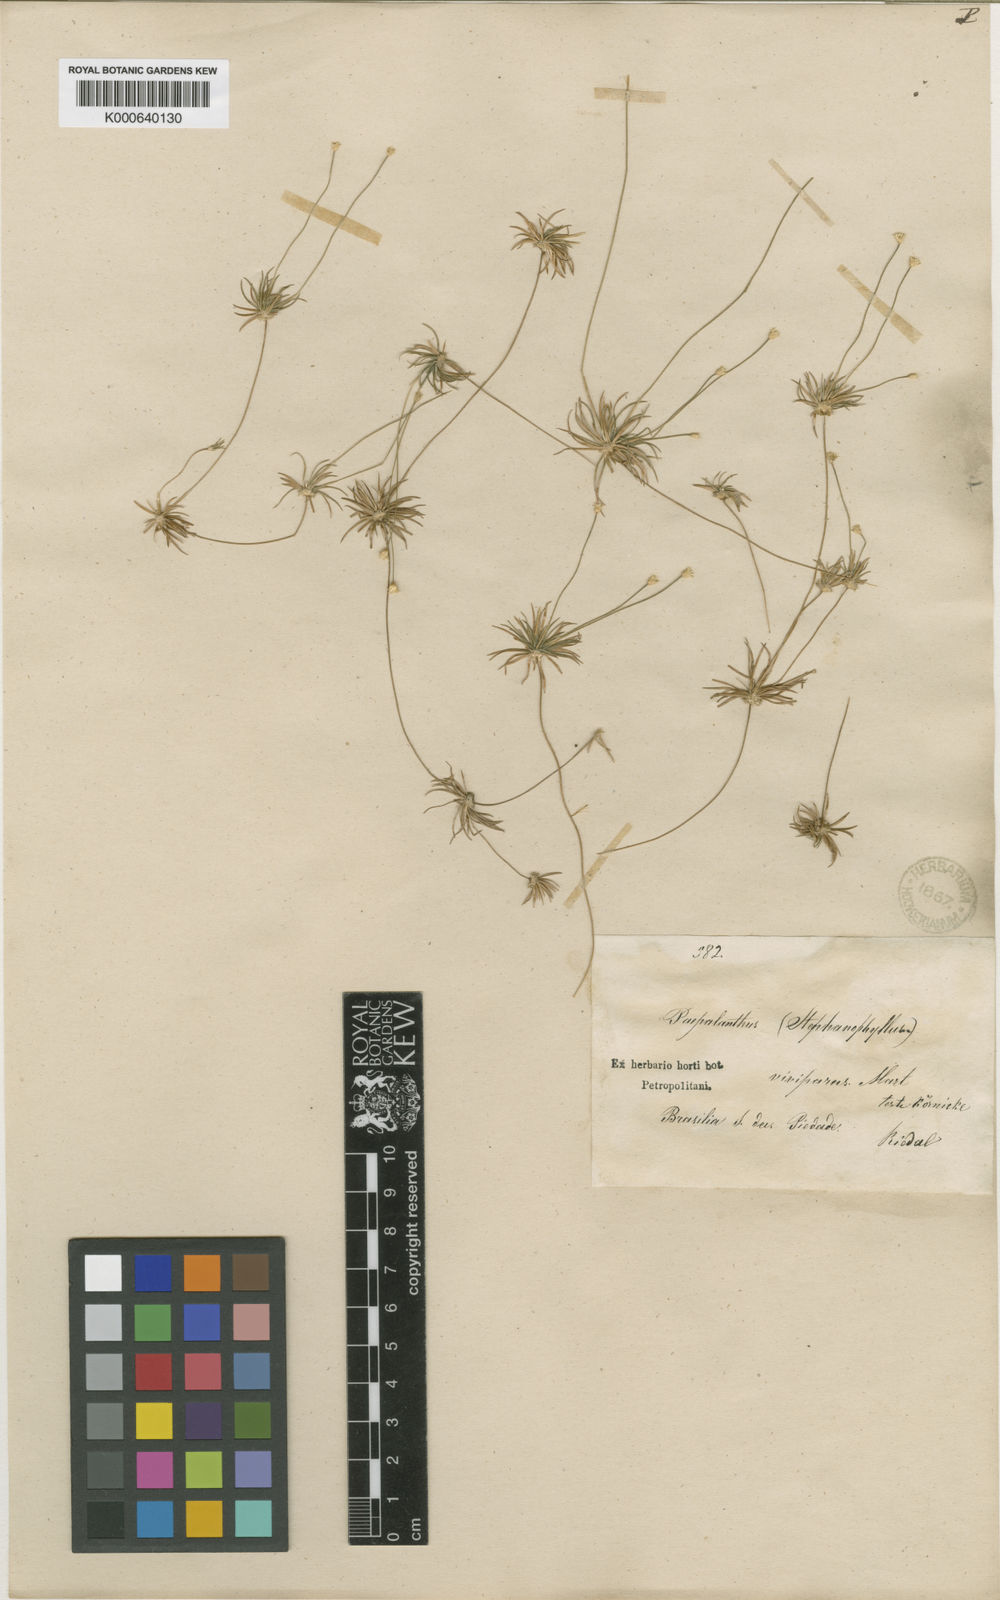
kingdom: Plantae
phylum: Tracheophyta
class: Liliopsida
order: Poales
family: Eriocaulaceae
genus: Leiothrix
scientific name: Leiothrix vivipara
